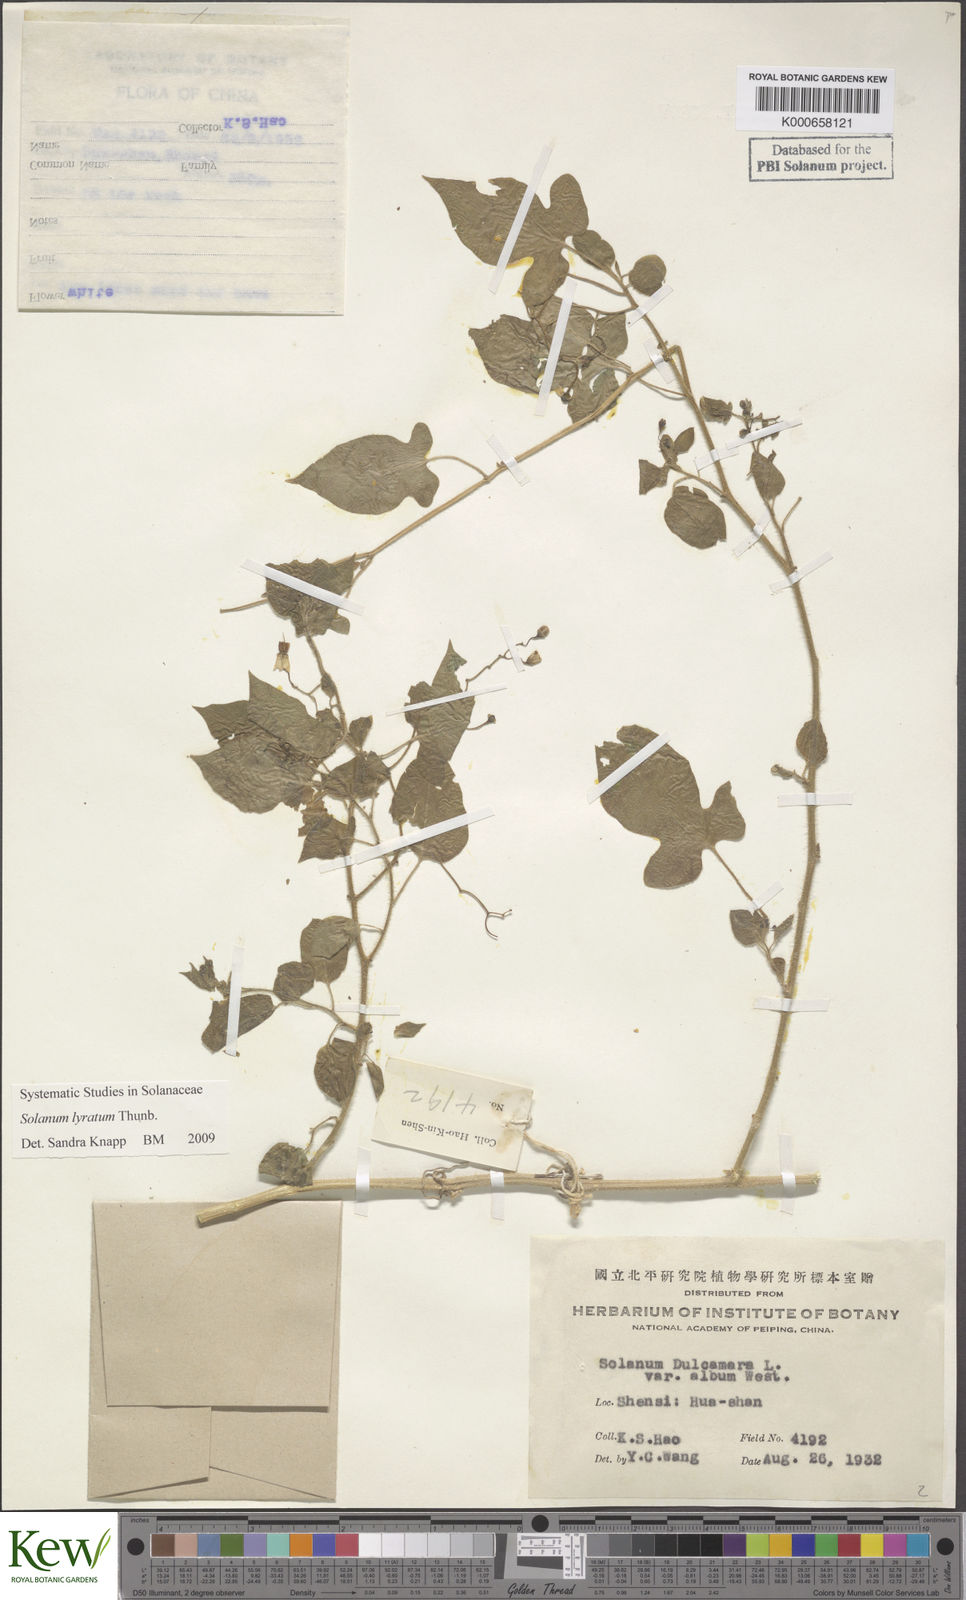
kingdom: Plantae
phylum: Tracheophyta
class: Magnoliopsida
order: Solanales
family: Solanaceae
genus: Solanum
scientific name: Solanum lyratum
